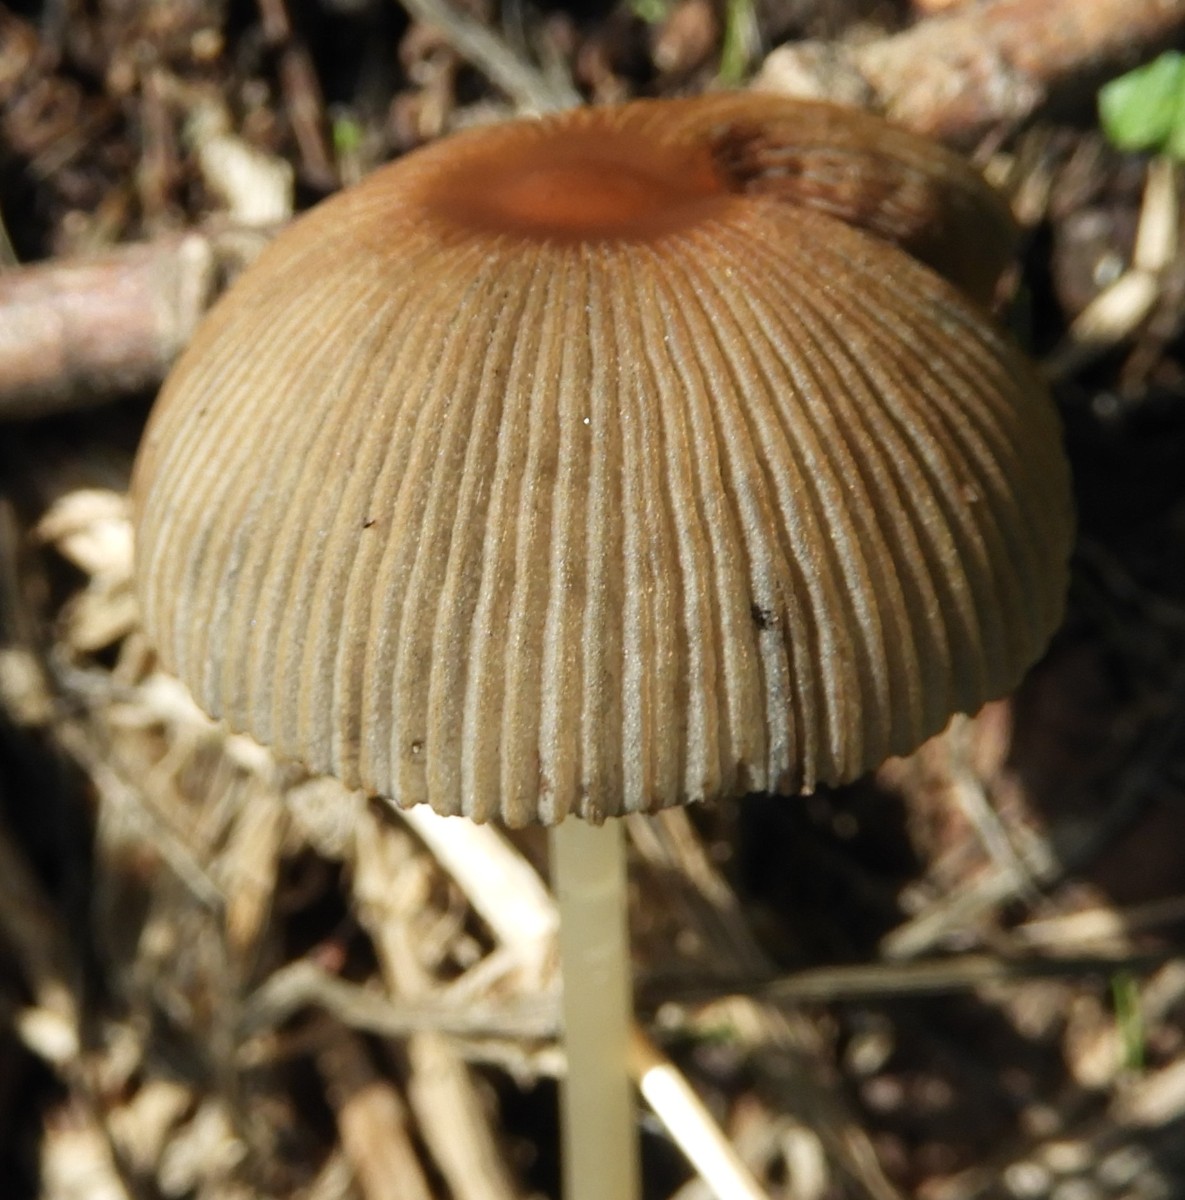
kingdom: Fungi
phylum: Basidiomycota
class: Agaricomycetes
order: Agaricales
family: Psathyrellaceae
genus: Parasola
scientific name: Parasola
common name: hjulhat
